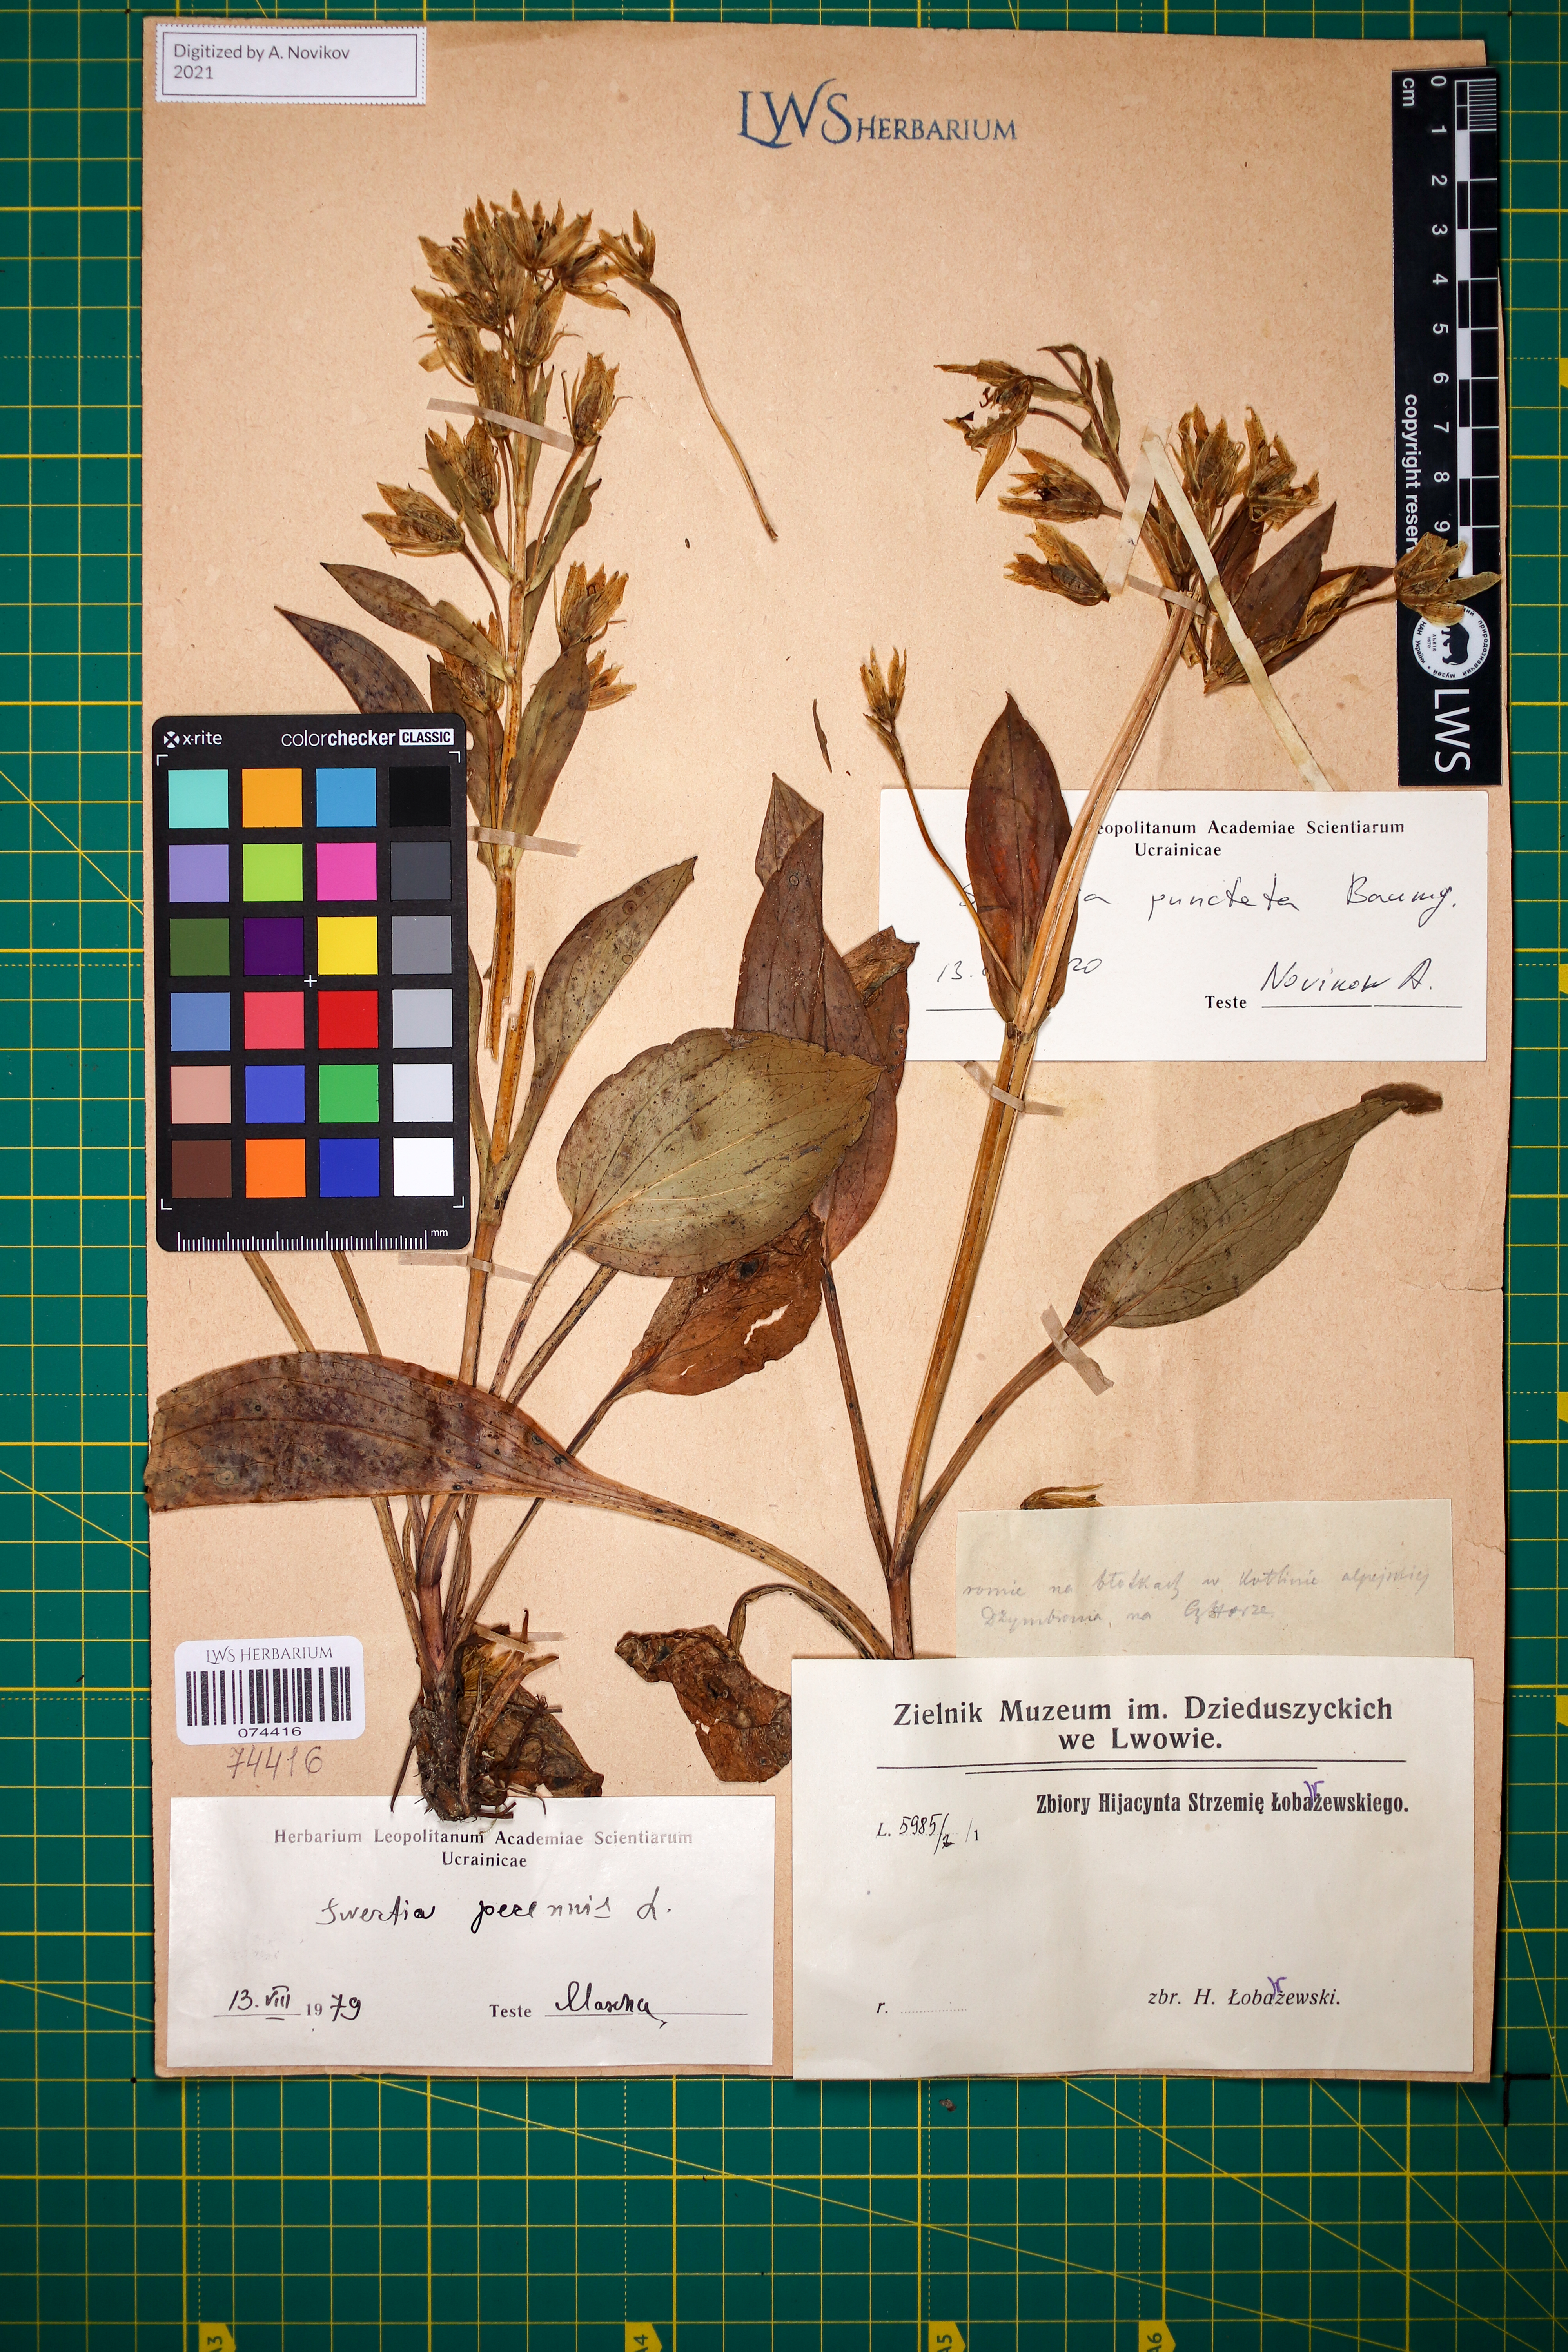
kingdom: Plantae
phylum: Tracheophyta
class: Magnoliopsida
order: Gentianales
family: Gentianaceae
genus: Swertia
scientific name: Swertia perennis
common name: Alpine bog swertia
